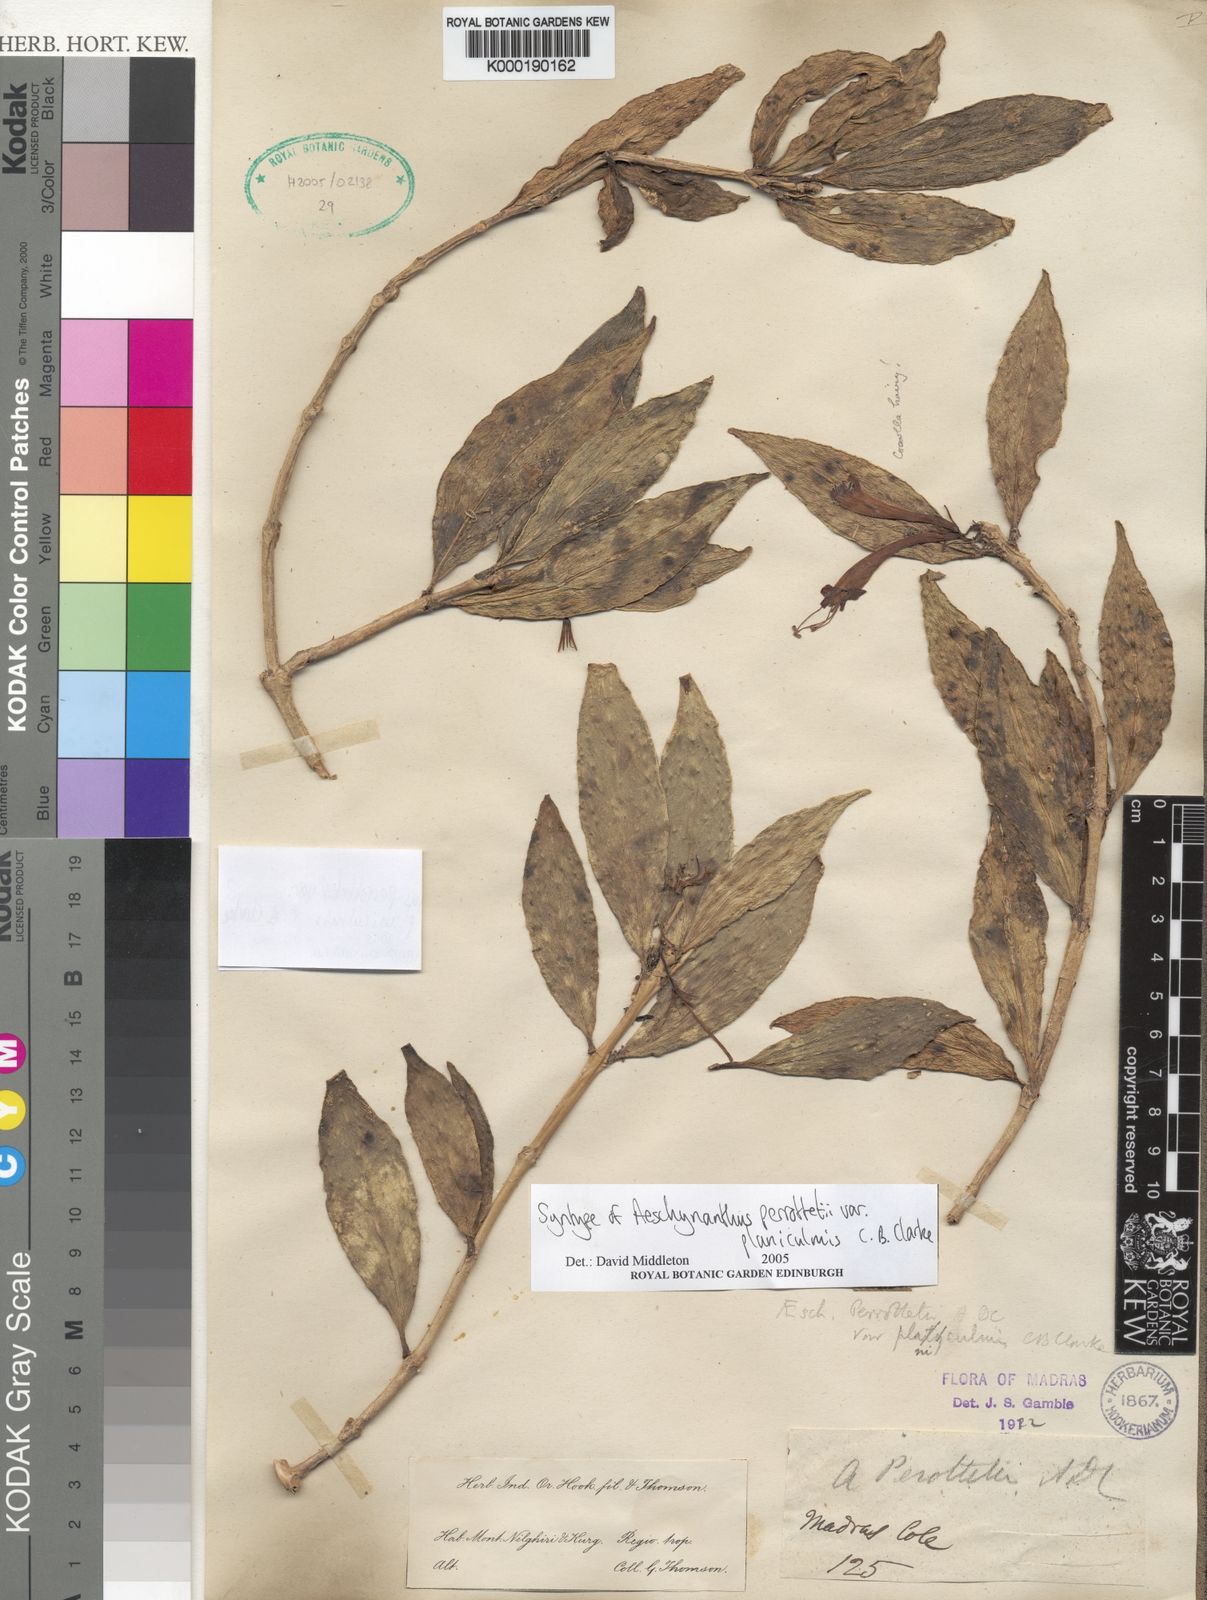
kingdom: Plantae
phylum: Tracheophyta
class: Magnoliopsida
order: Lamiales
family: Gesneriaceae
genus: Aeschynanthus
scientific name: Aeschynanthus perrottetii
